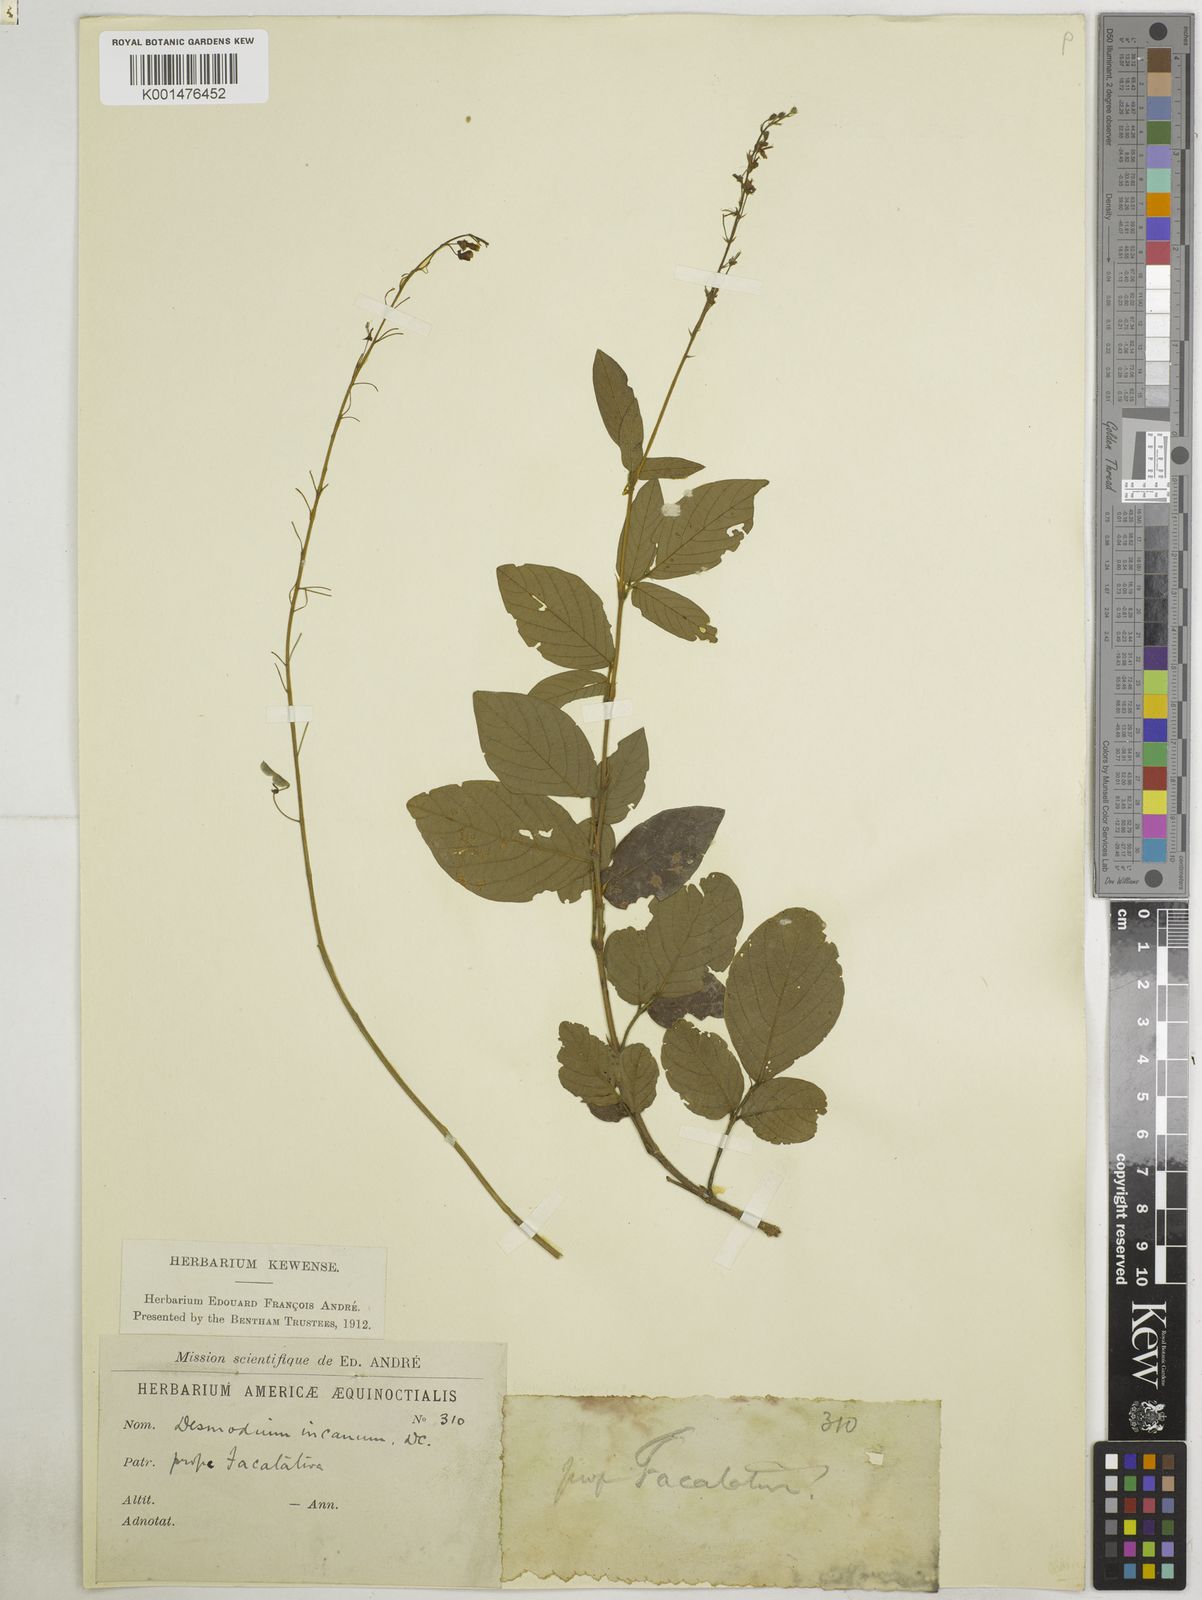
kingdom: Plantae
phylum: Tracheophyta
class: Magnoliopsida
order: Fabales
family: Fabaceae
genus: Desmodium
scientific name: Desmodium incanum
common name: Tickclover
